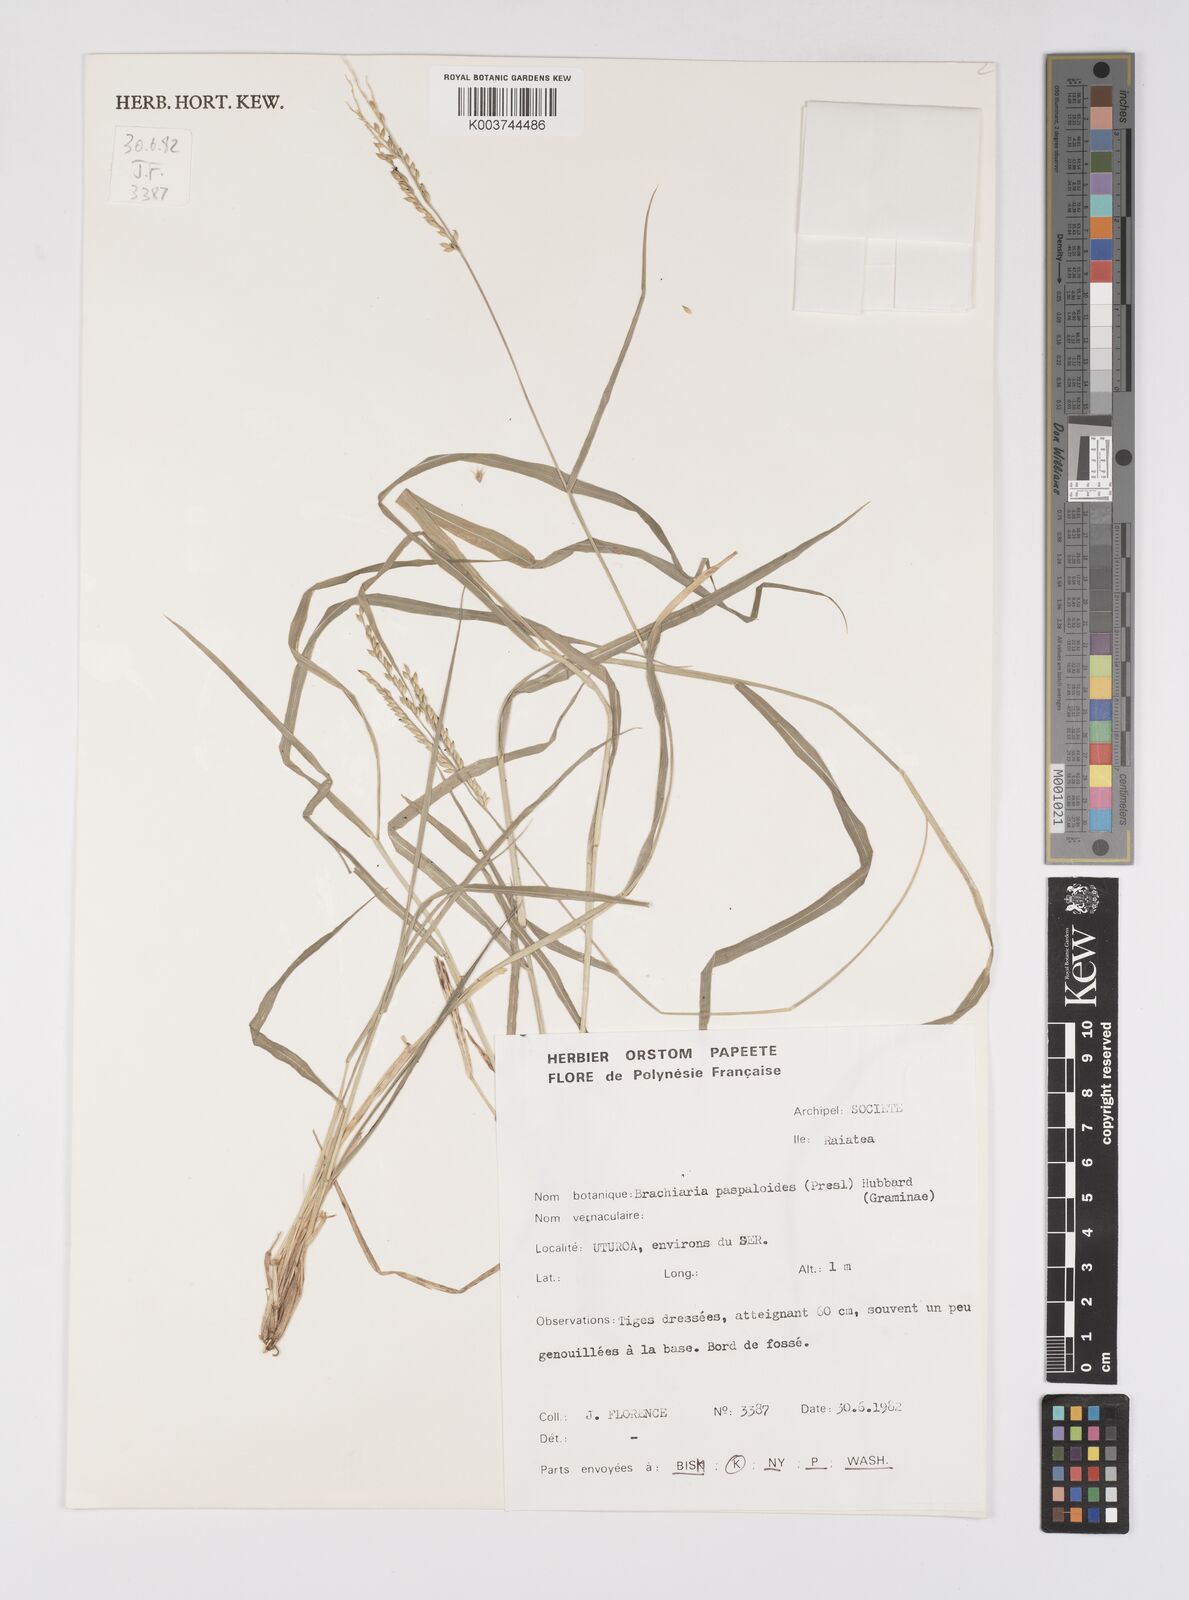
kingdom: Plantae
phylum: Tracheophyta
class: Liliopsida
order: Poales
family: Poaceae
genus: Urochloa
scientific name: Urochloa glumaris
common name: Thurston grass
